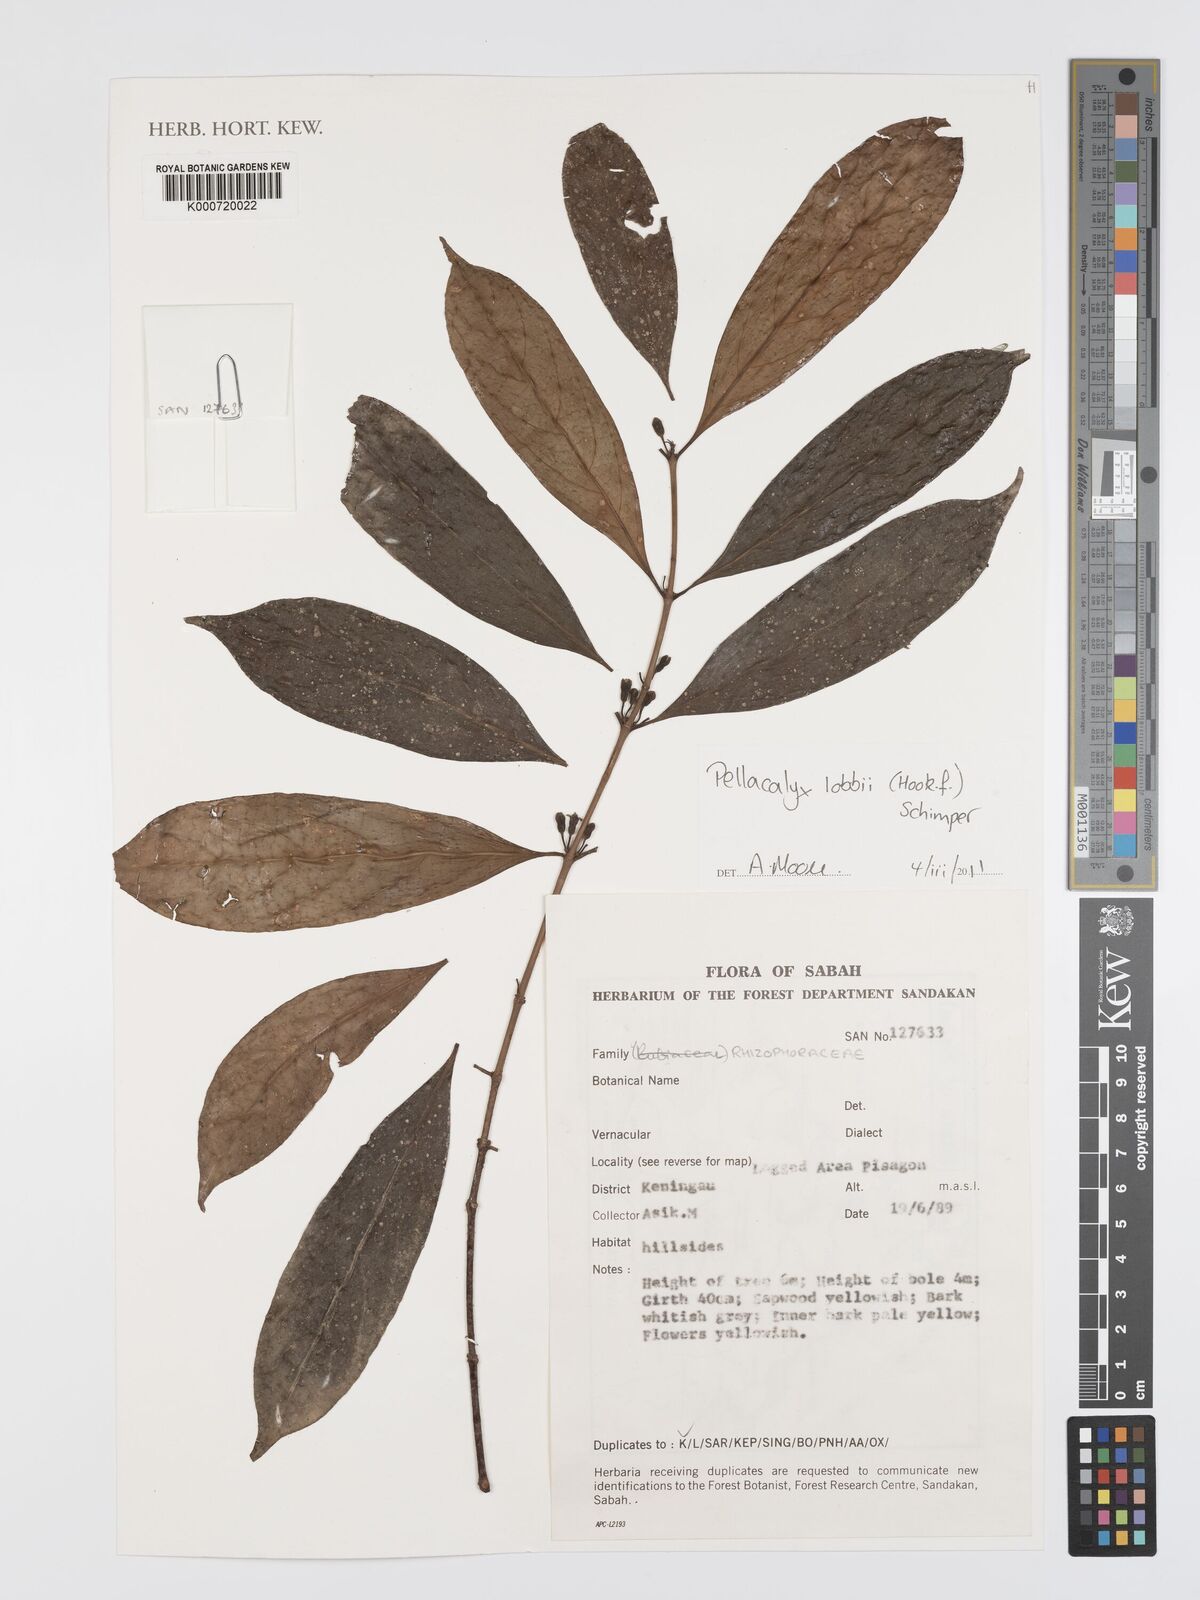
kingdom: Plantae
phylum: Tracheophyta
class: Magnoliopsida
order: Malpighiales
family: Rhizophoraceae
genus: Pellacalyx
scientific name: Pellacalyx
